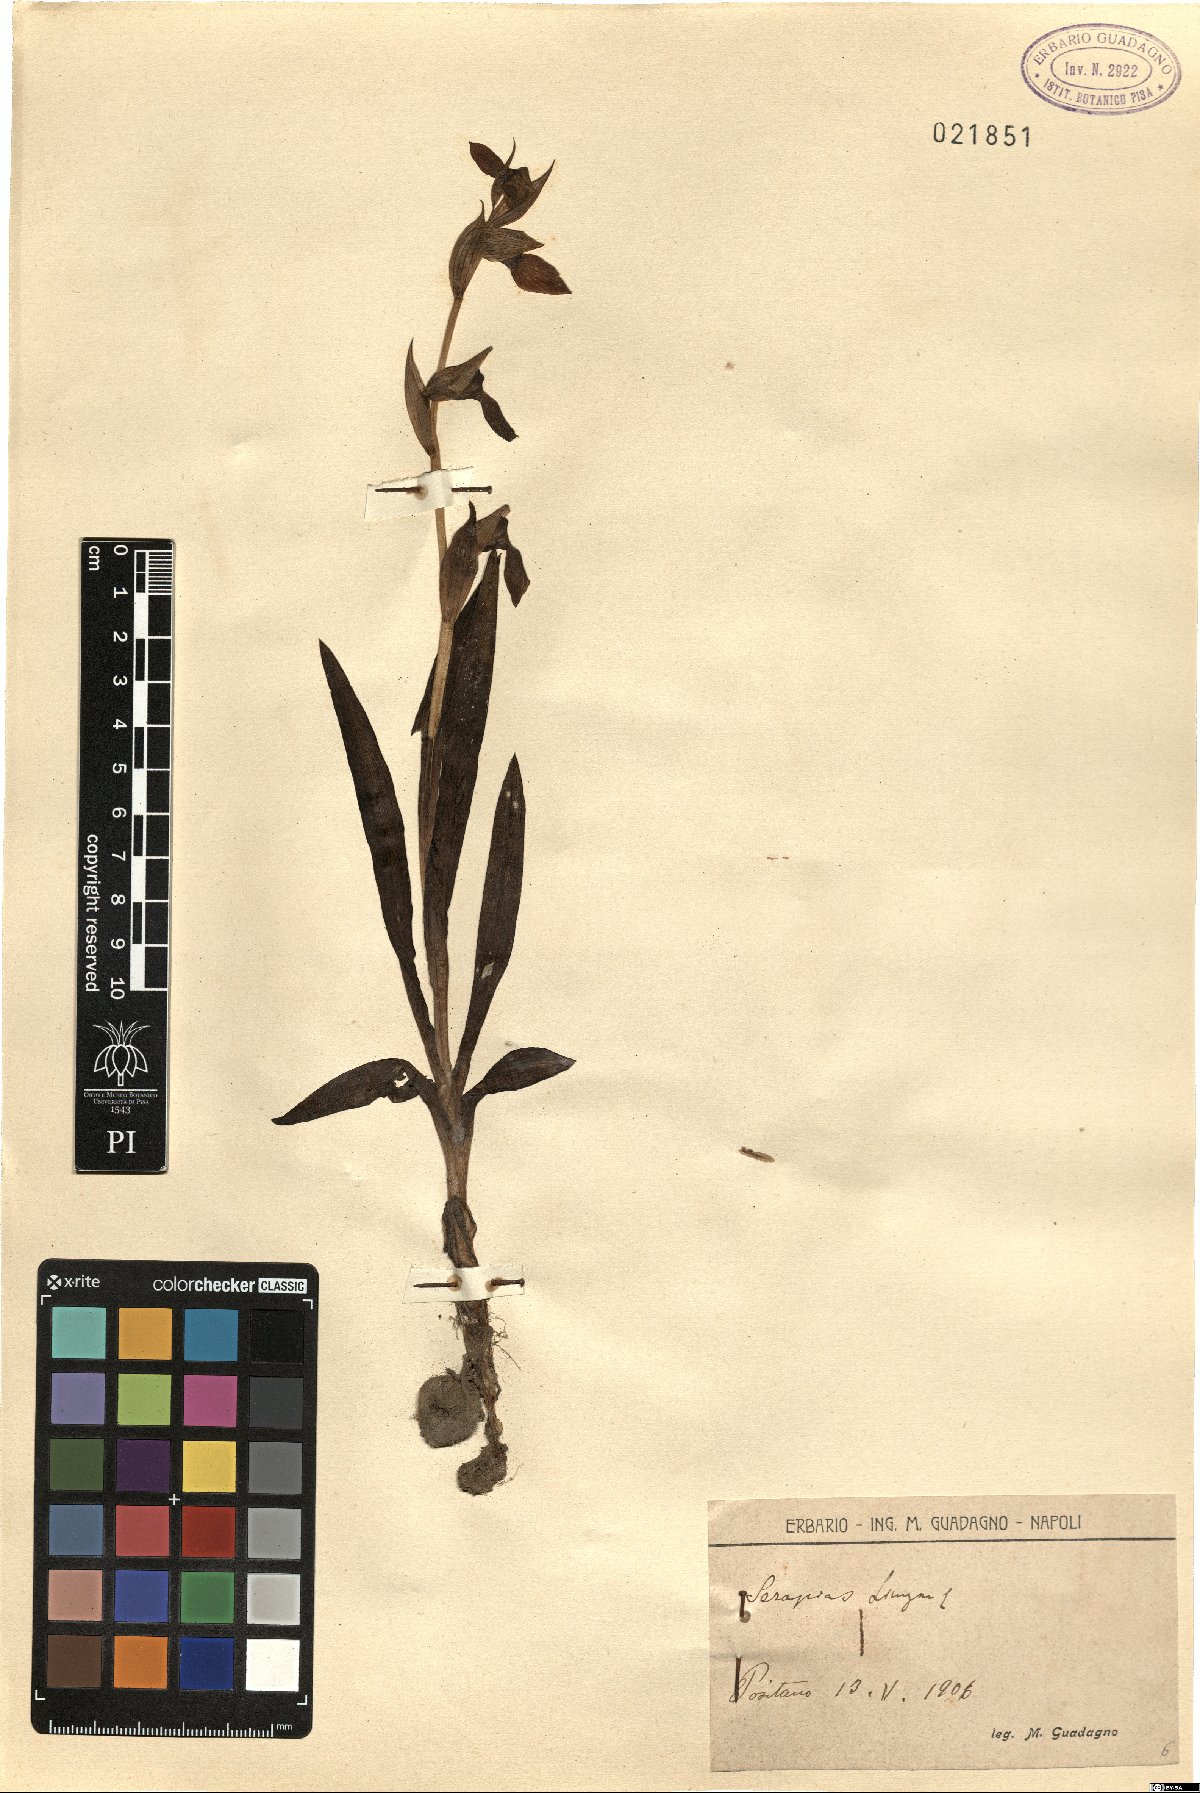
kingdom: Plantae
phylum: Tracheophyta
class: Liliopsida
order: Asparagales
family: Orchidaceae
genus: Serapias
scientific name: Serapias lingua
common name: Tongue-orchid
